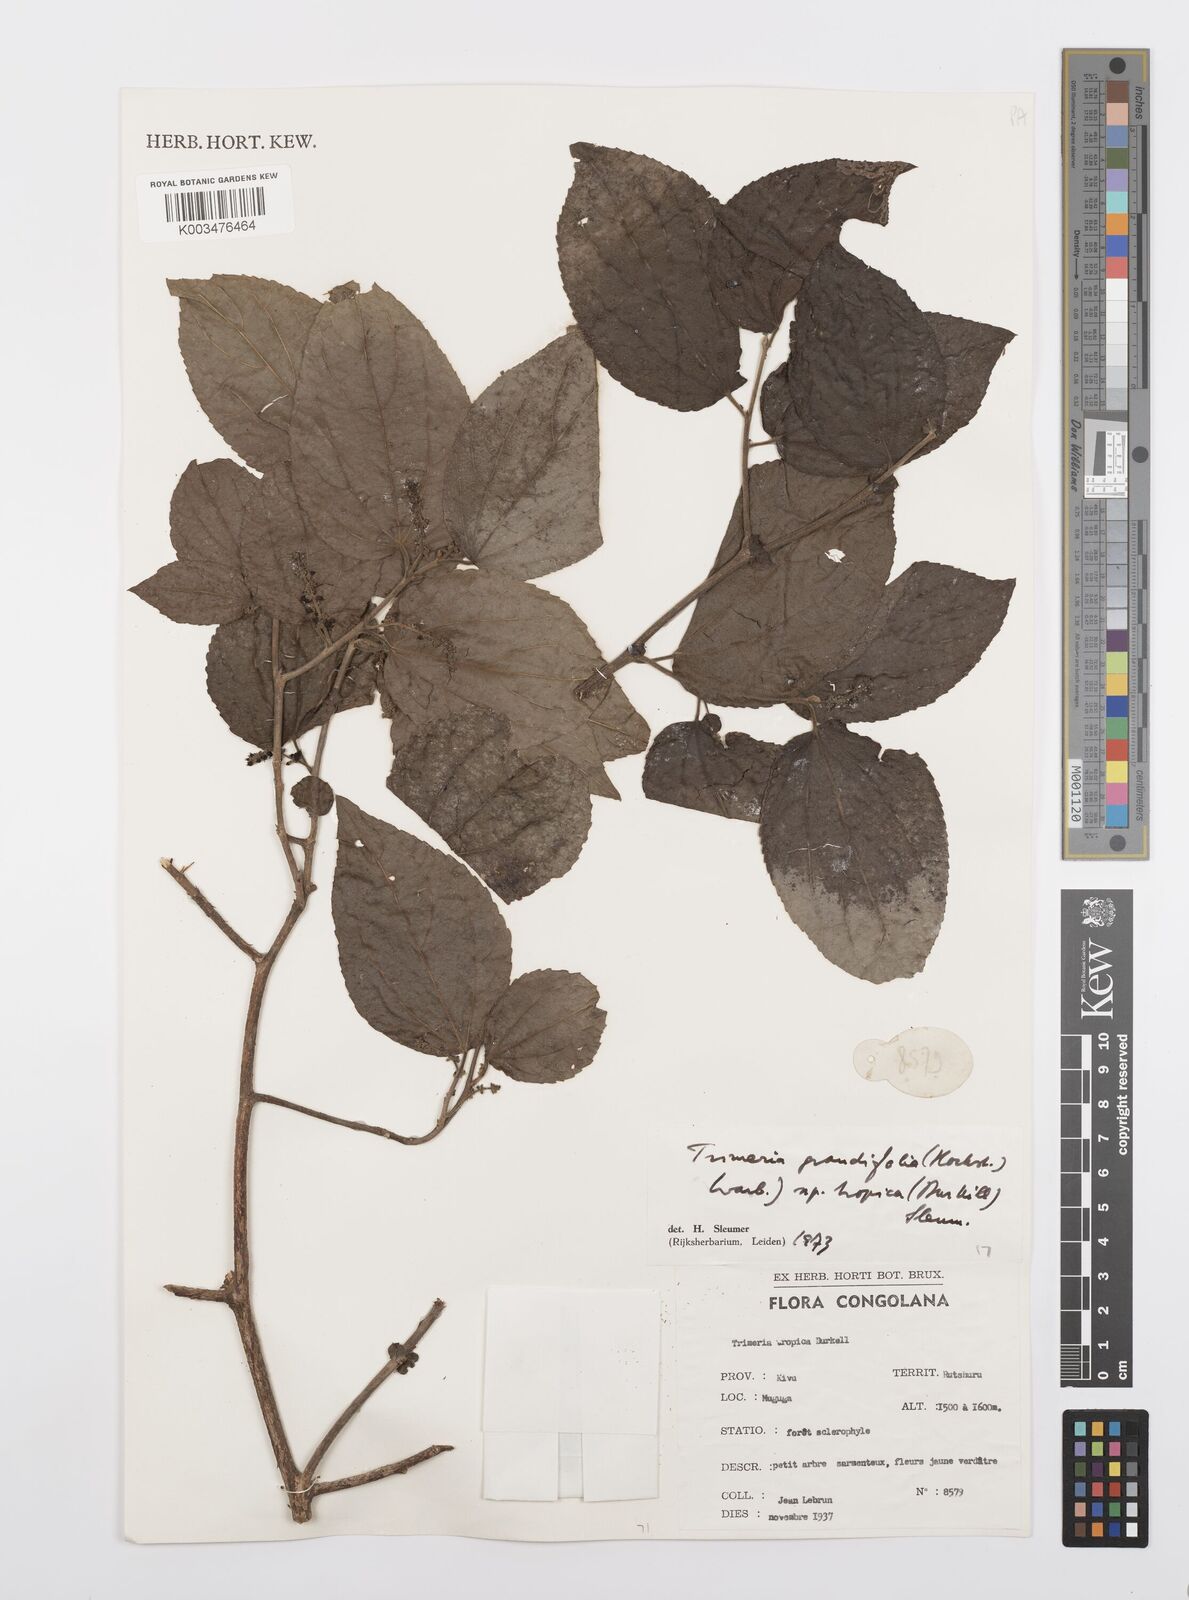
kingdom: Plantae
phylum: Tracheophyta
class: Magnoliopsida
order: Malpighiales
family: Salicaceae
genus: Trimeria
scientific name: Trimeria grandifolia
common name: Wild mulberry
